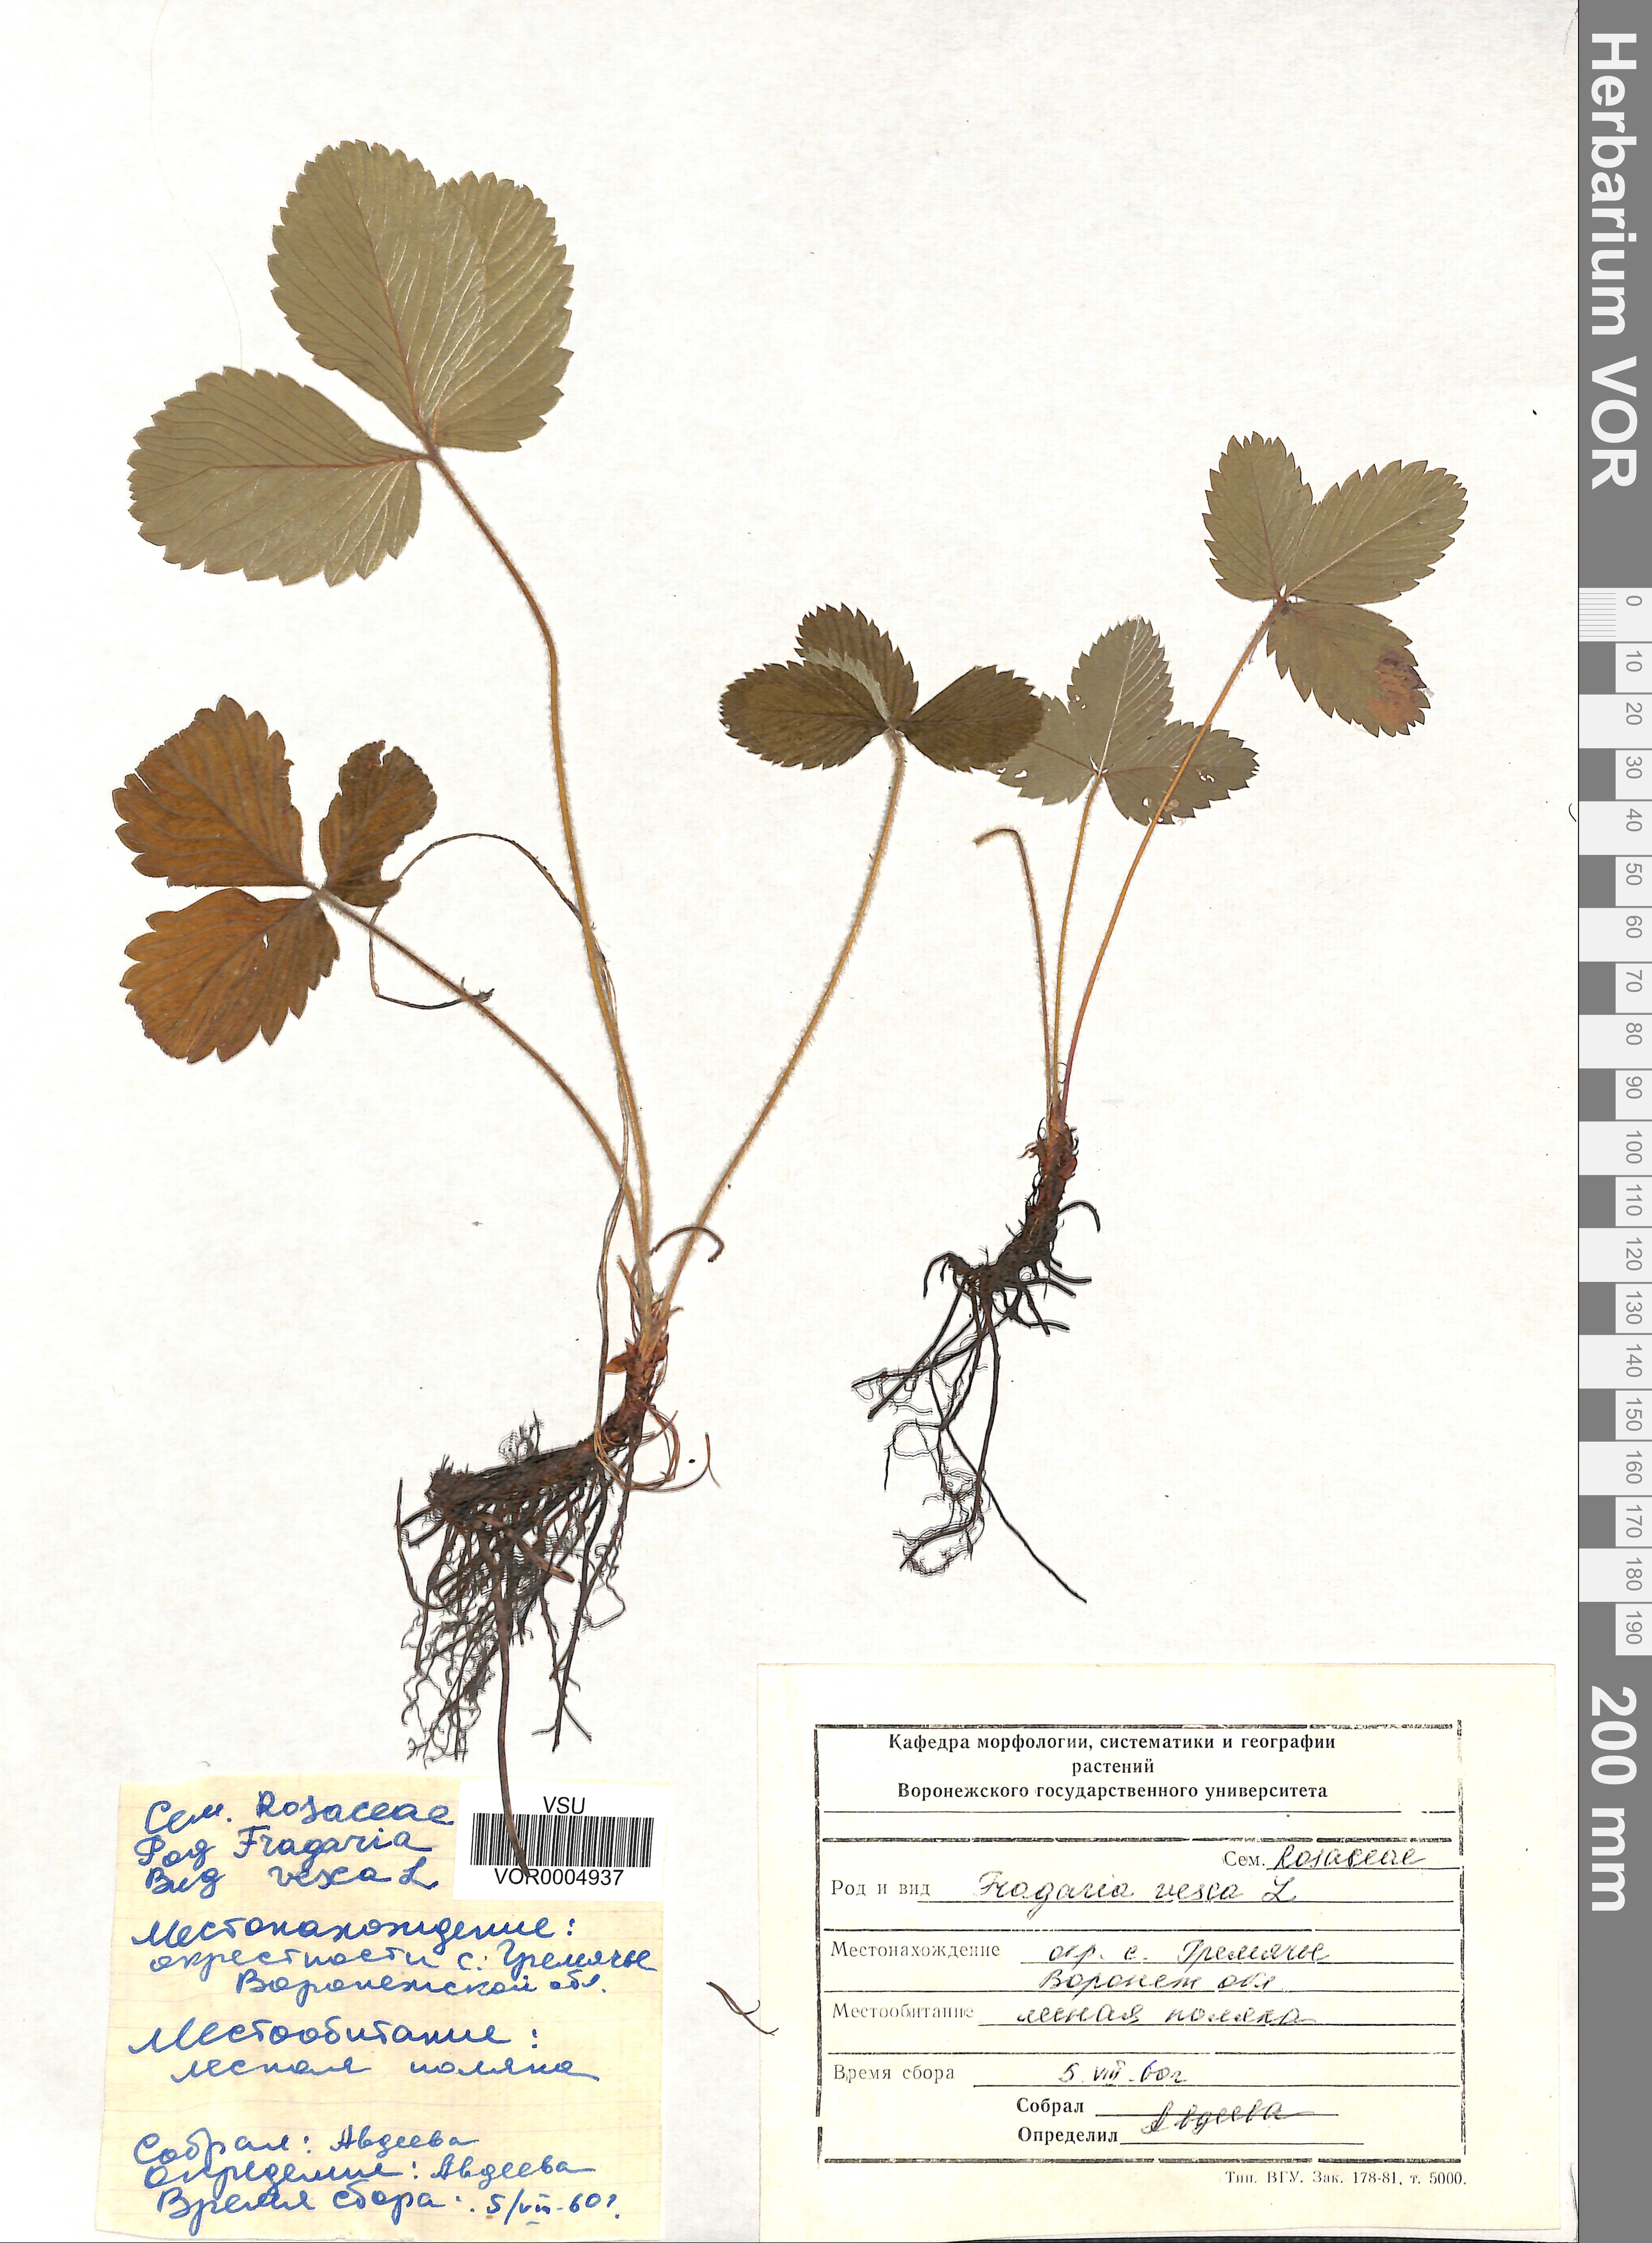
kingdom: Plantae
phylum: Tracheophyta
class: Magnoliopsida
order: Rosales
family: Rosaceae
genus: Fragaria
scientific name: Fragaria vesca
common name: Wild strawberry
